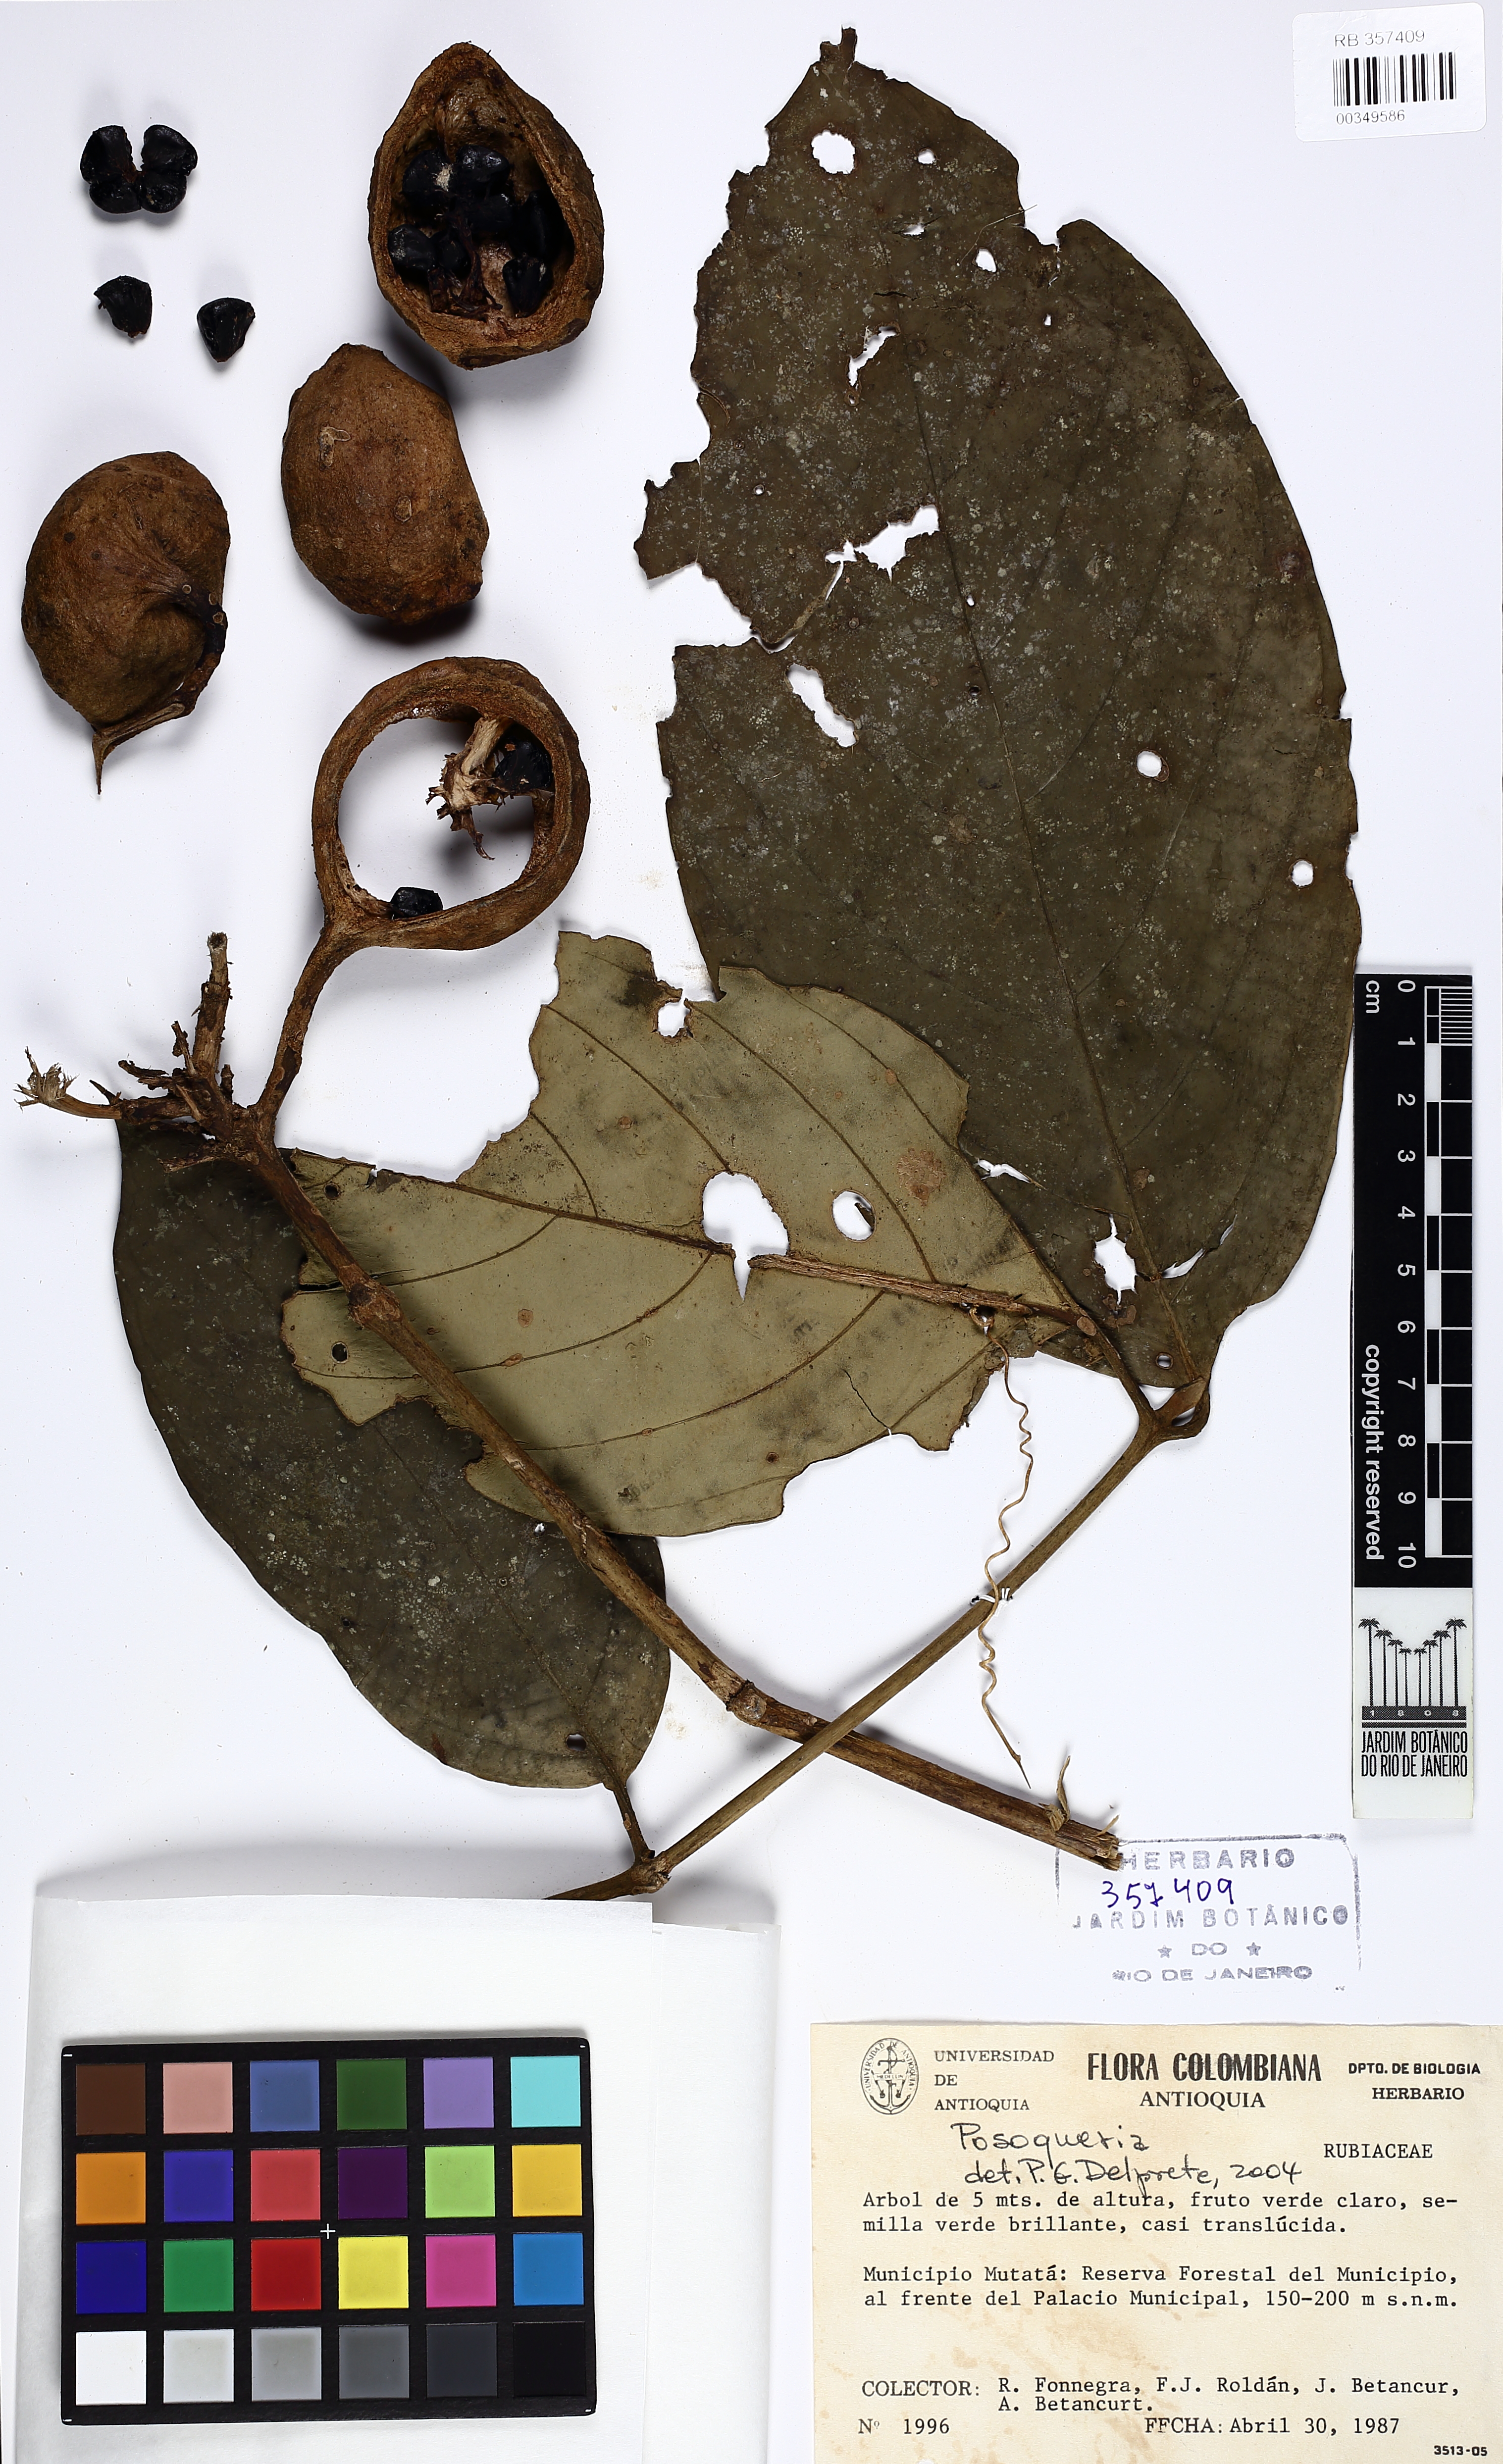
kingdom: Plantae
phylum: Tracheophyta
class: Magnoliopsida
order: Gentianales
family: Rubiaceae
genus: Posoqueria
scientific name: Posoqueria
